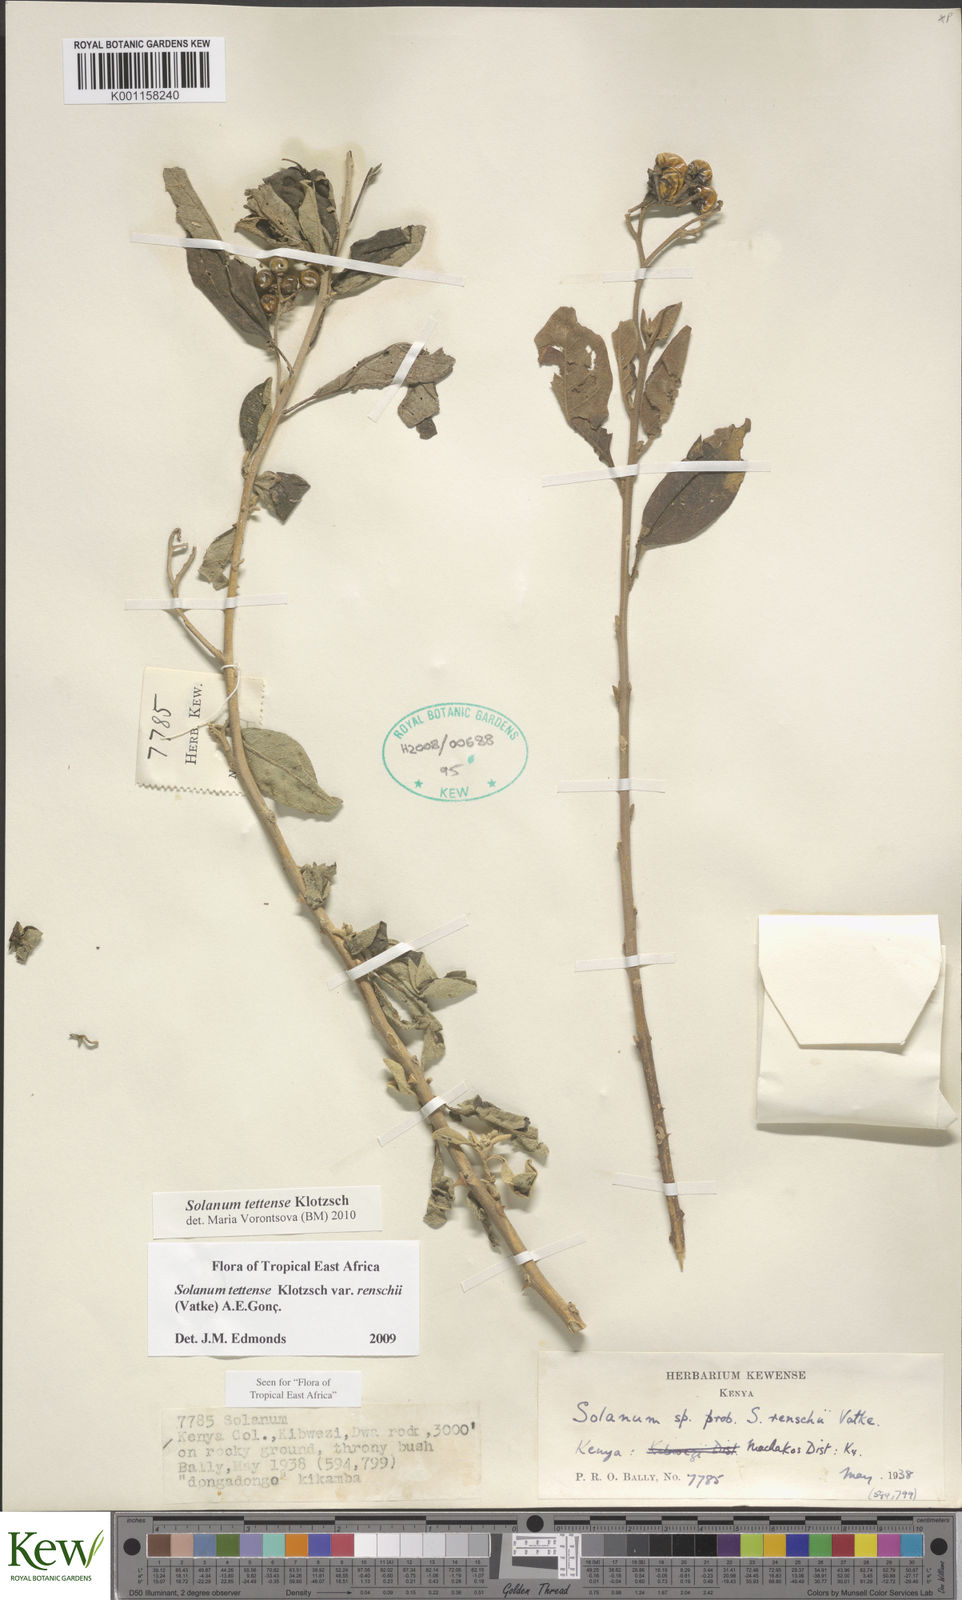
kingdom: Plantae
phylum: Tracheophyta
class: Magnoliopsida
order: Solanales
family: Solanaceae
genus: Solanum
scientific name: Solanum tettense
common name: Mozambique bitter apple
